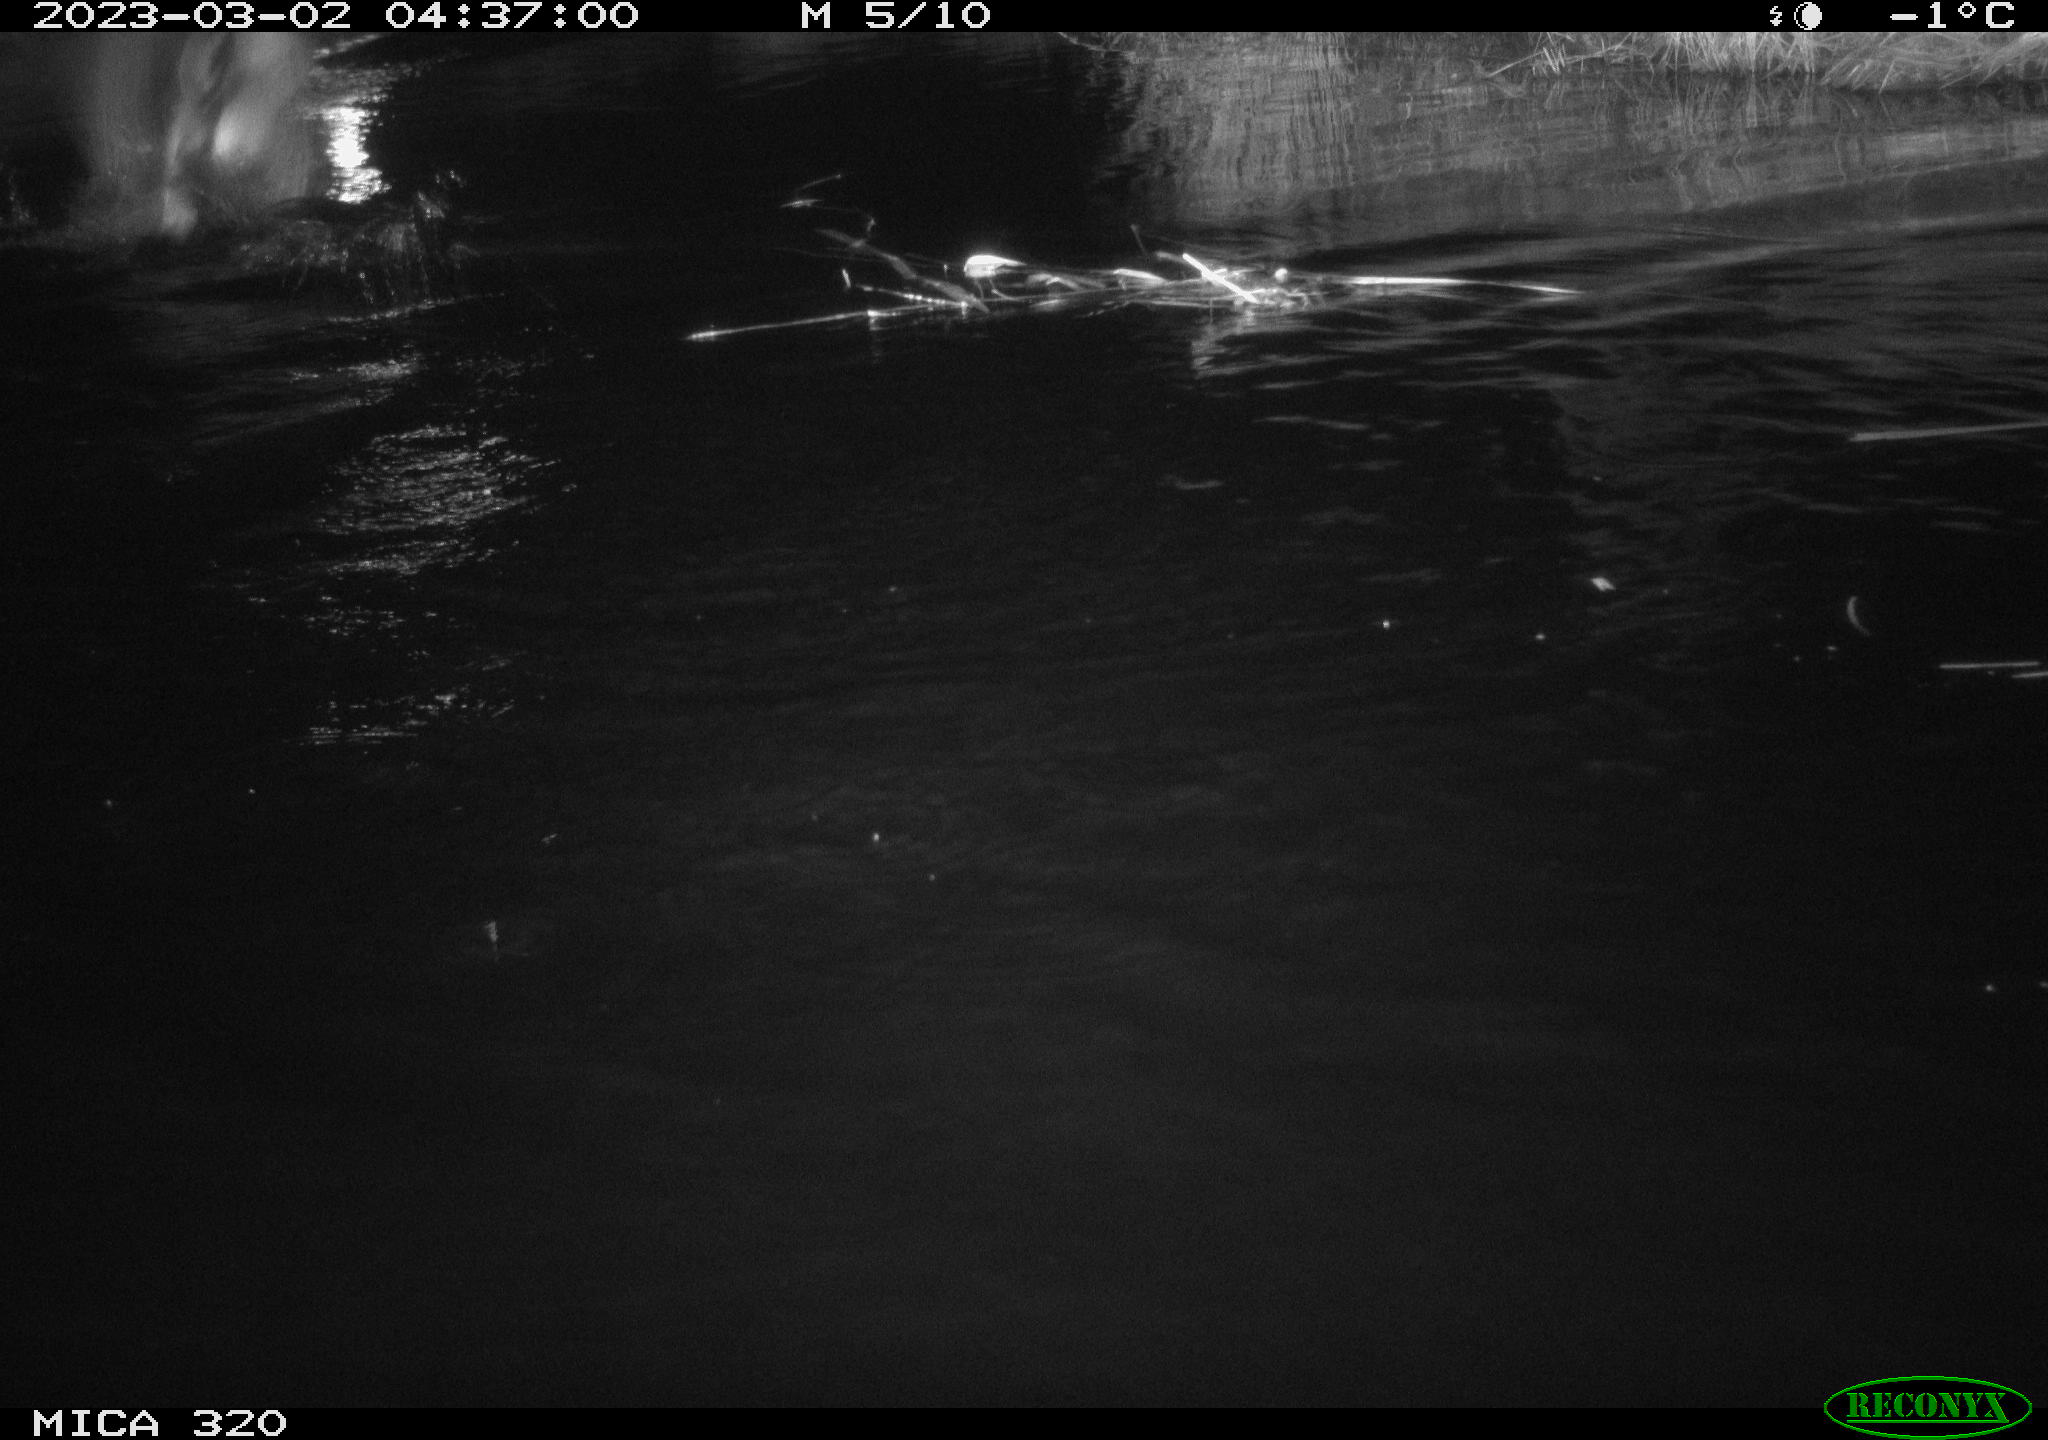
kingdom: Animalia
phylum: Chordata
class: Aves
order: Anseriformes
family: Anatidae
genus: Anas
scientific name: Anas
